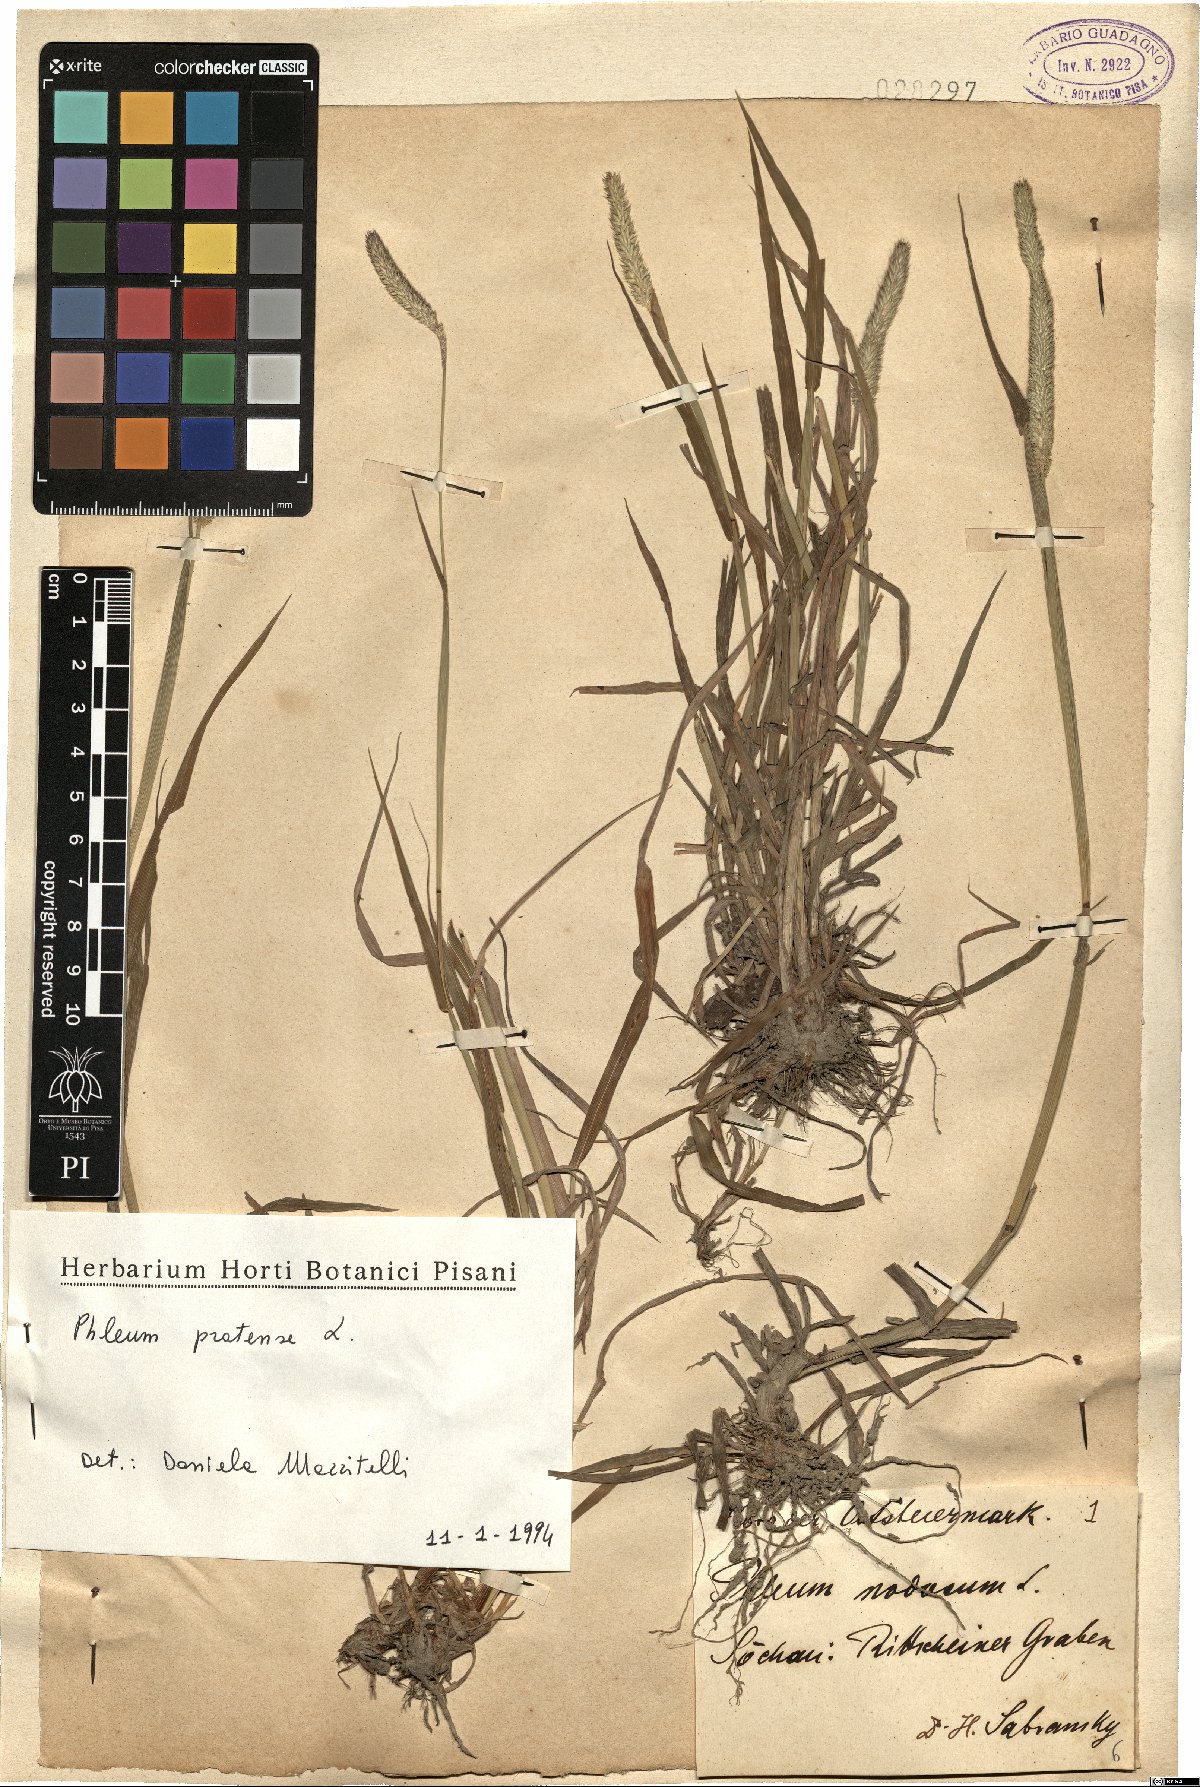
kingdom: Plantae
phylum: Tracheophyta
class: Liliopsida
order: Poales
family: Poaceae
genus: Phleum
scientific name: Phleum pratense
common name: Timothy grass
